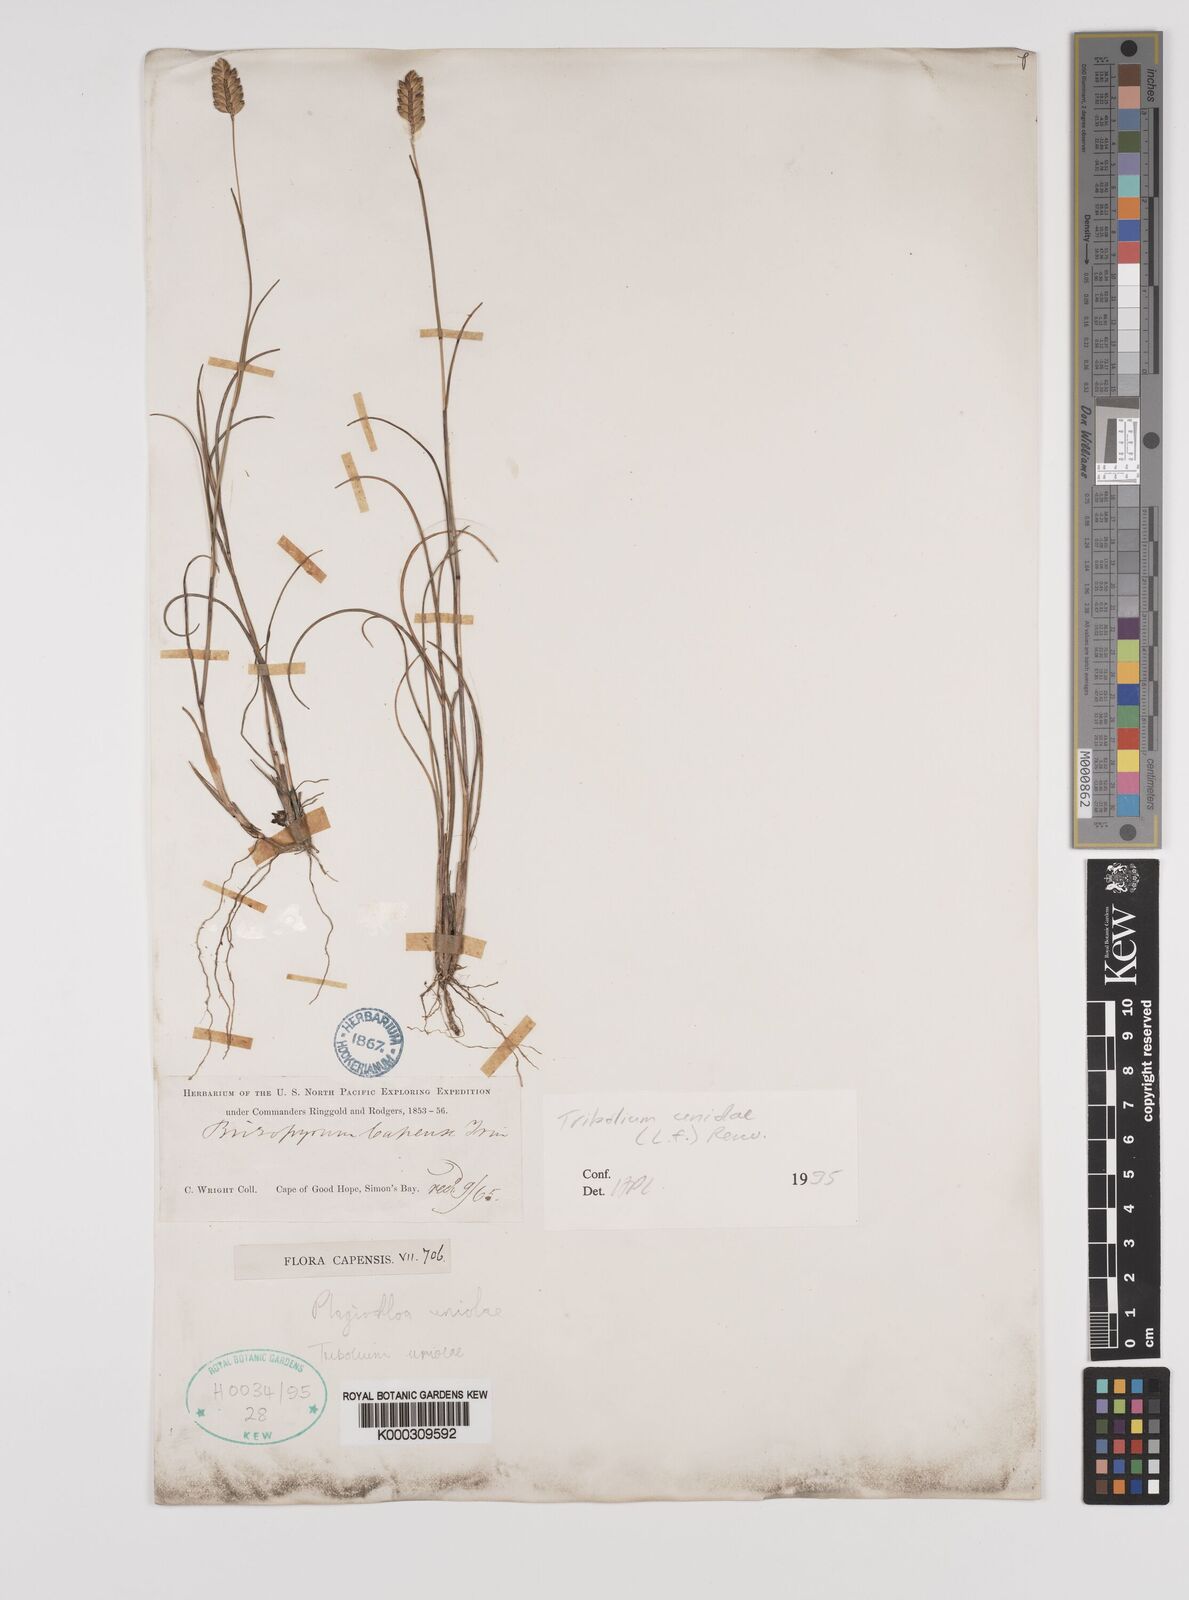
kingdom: Plantae
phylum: Tracheophyta
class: Liliopsida
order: Poales
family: Poaceae
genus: Tribolium
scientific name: Tribolium uniolae
